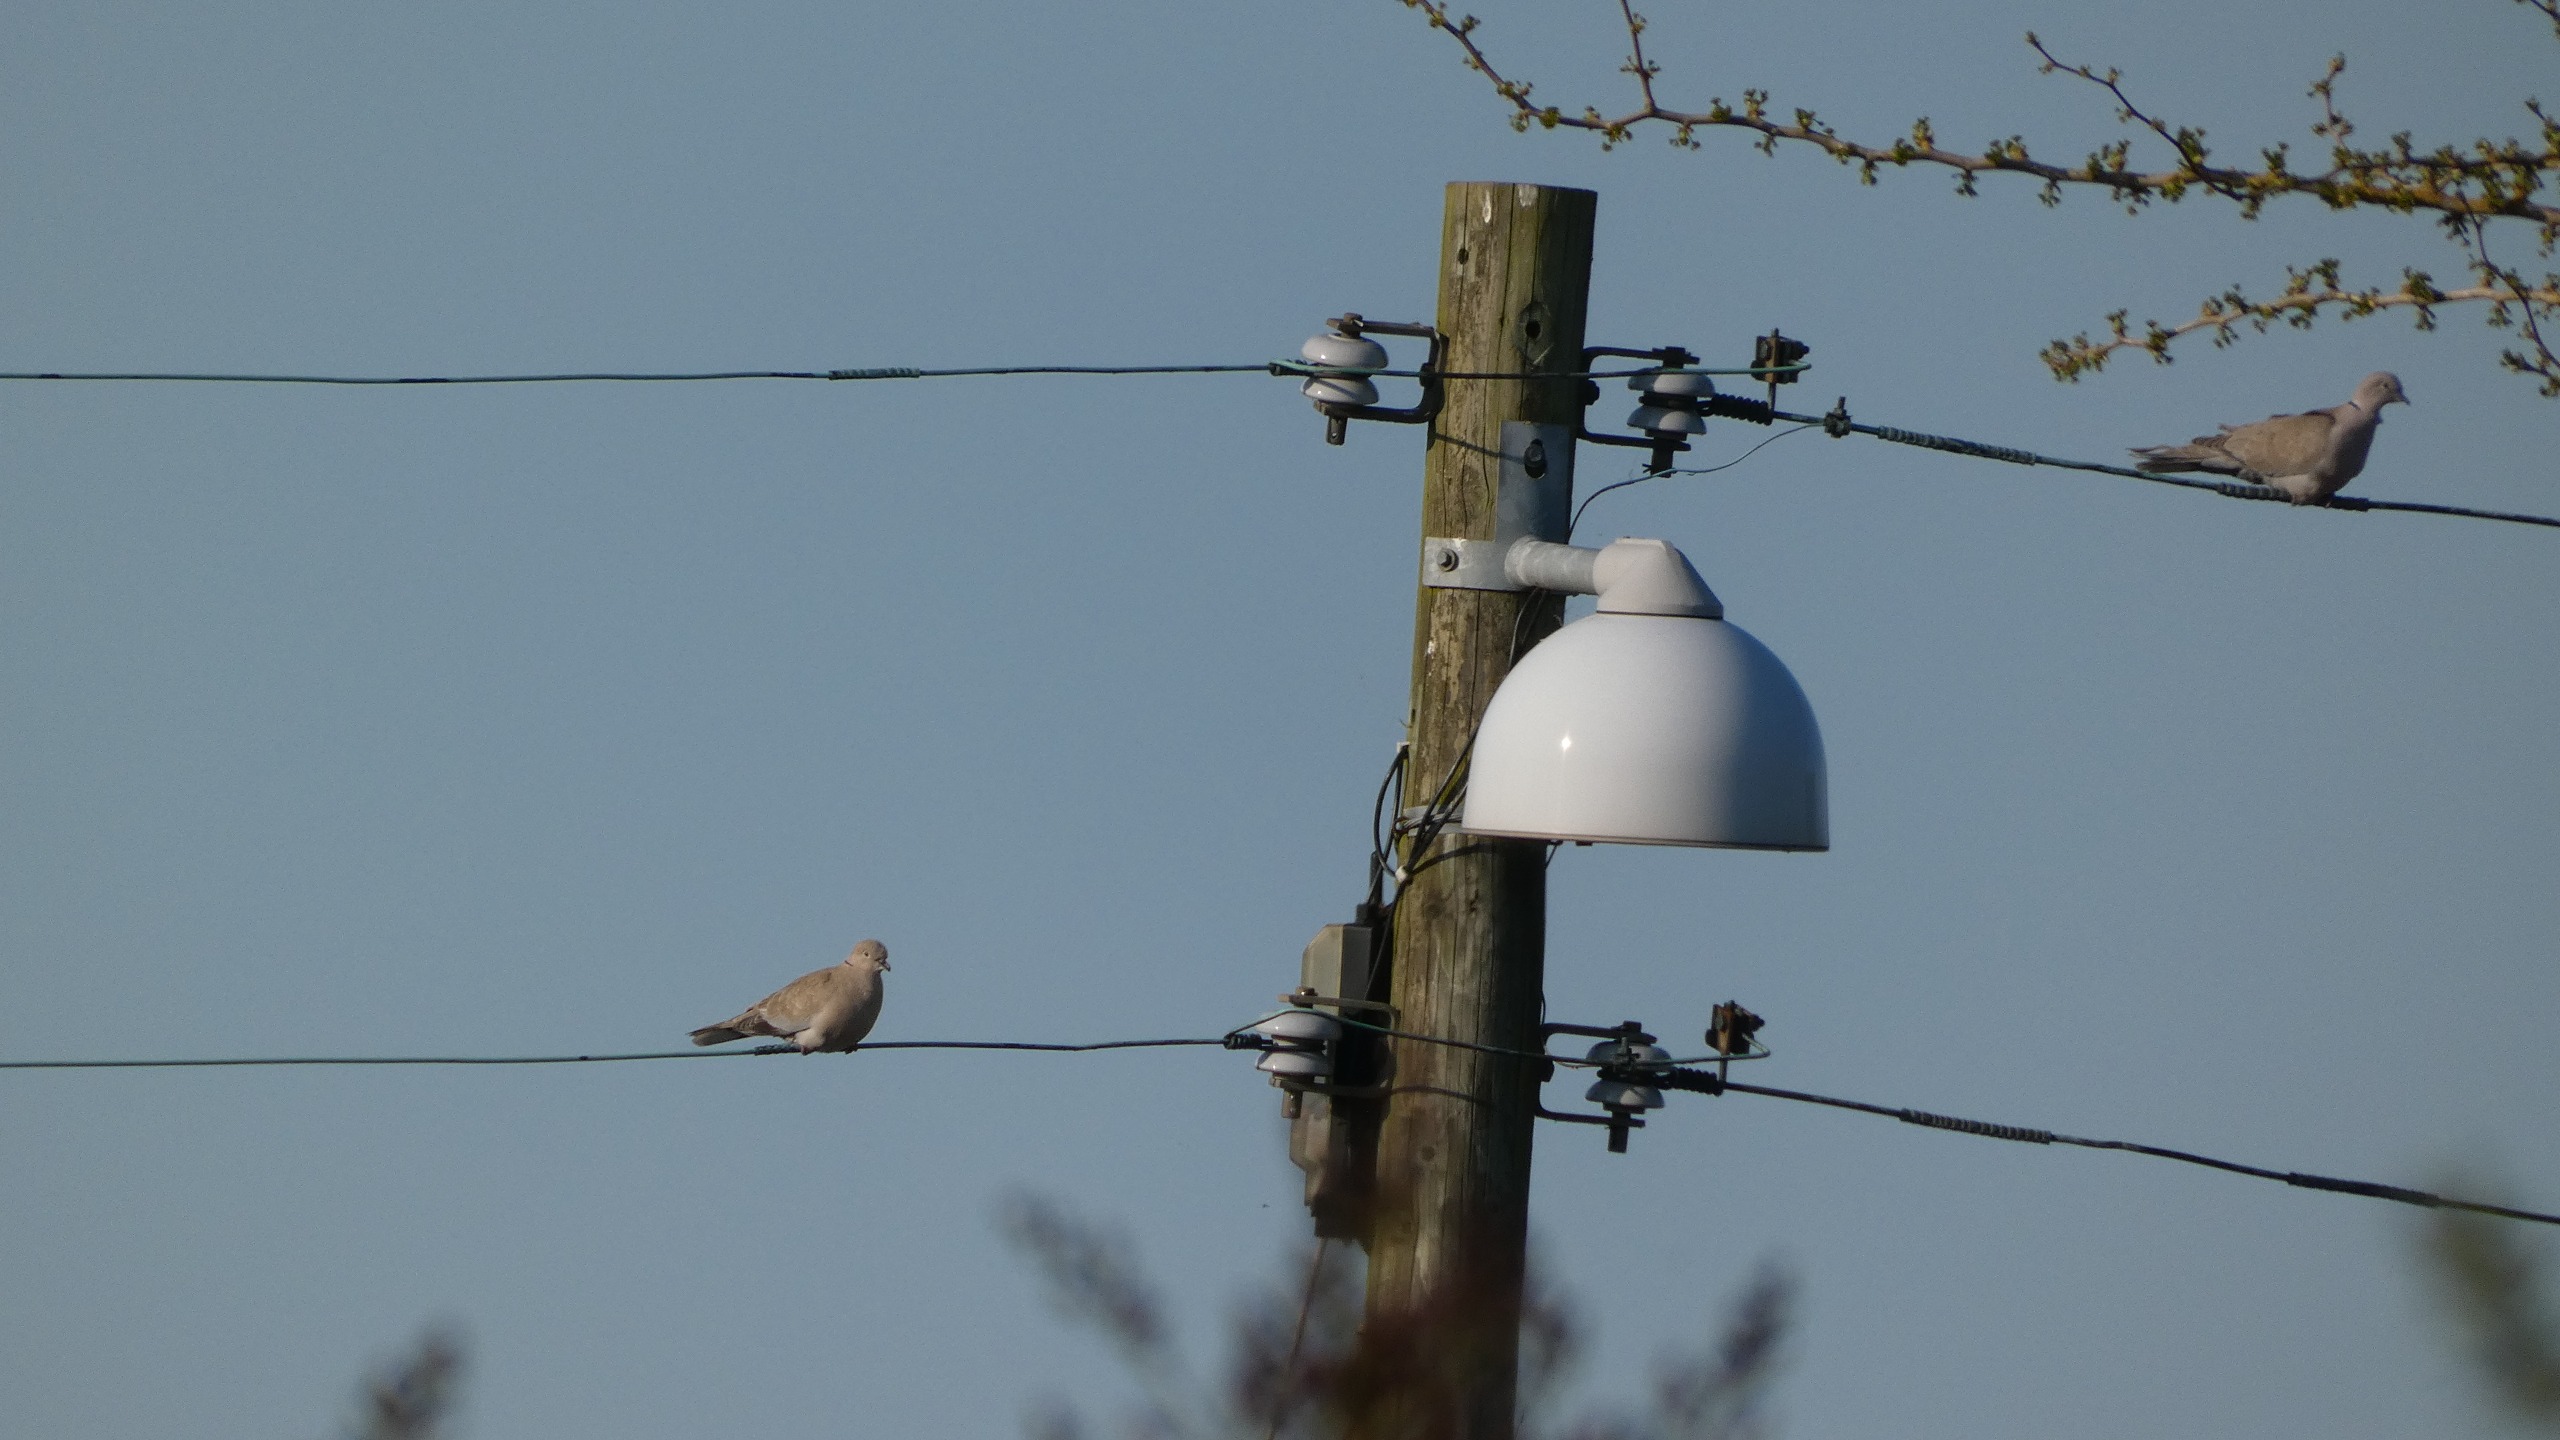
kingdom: Animalia
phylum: Chordata
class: Aves
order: Columbiformes
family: Columbidae
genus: Streptopelia
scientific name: Streptopelia decaocto
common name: Tyrkerdue
